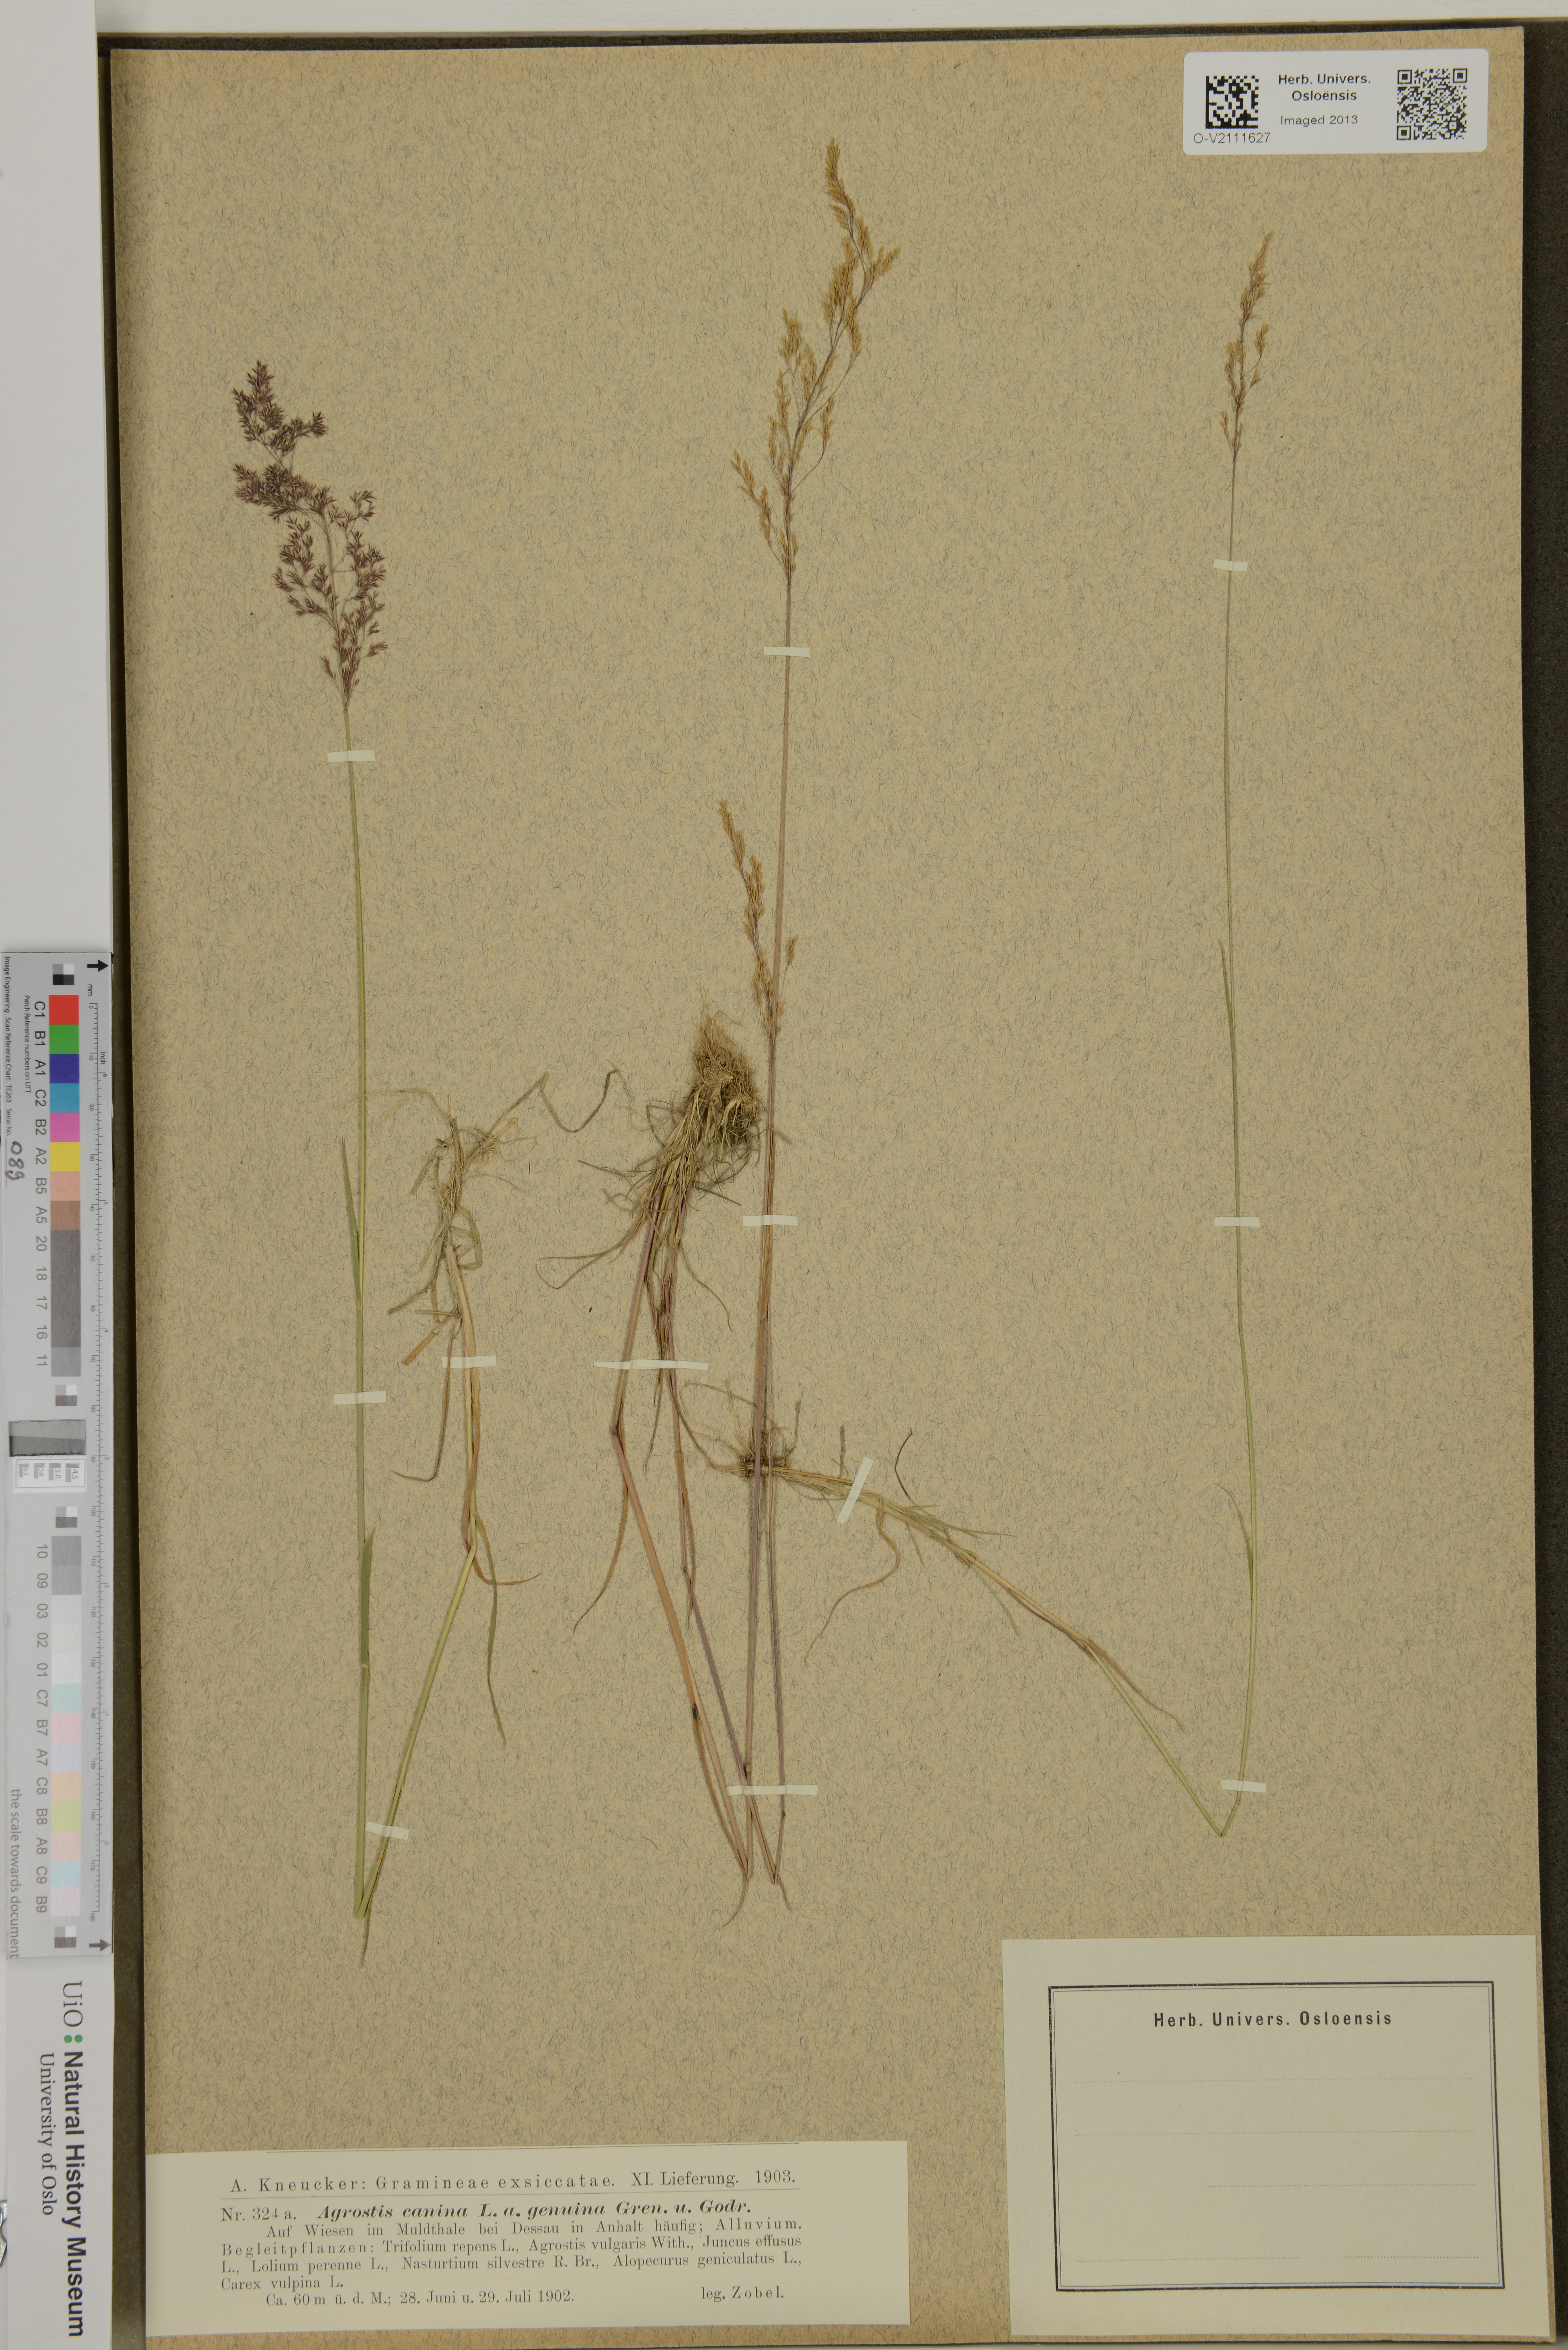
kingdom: Plantae
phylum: Tracheophyta
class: Liliopsida
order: Poales
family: Poaceae
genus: Agrostis
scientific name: Agrostis canina
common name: Velvet bent
